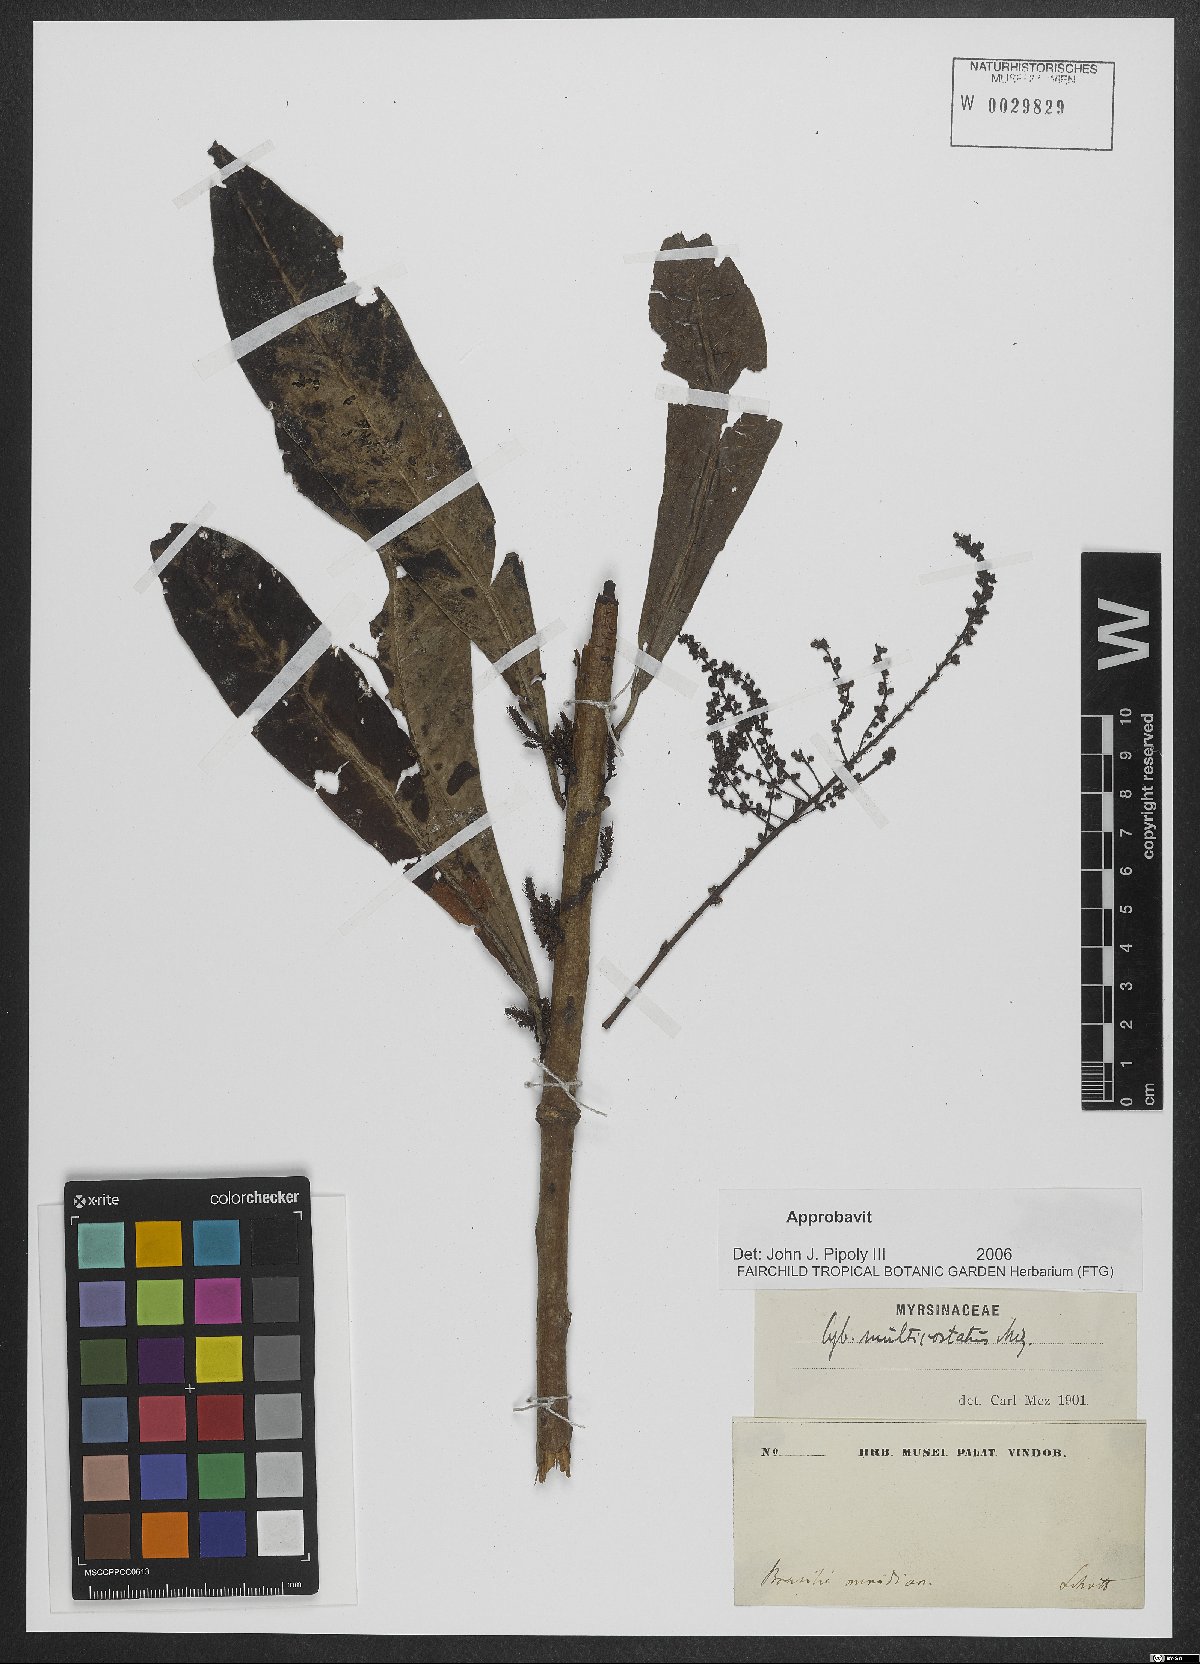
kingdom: Plantae
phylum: Tracheophyta
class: Magnoliopsida
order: Ericales
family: Primulaceae
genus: Cybianthus
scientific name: Cybianthus multicostatus
